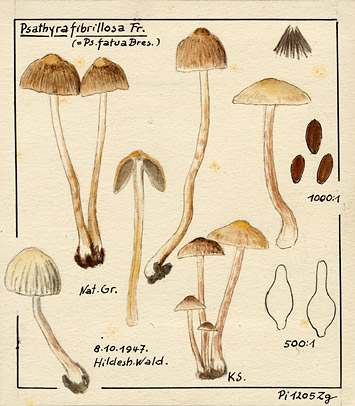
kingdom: Fungi
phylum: Basidiomycota
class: Agaricomycetes
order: Agaricales
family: Psathyrellaceae
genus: Psathyrella
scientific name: Psathyrella senex
